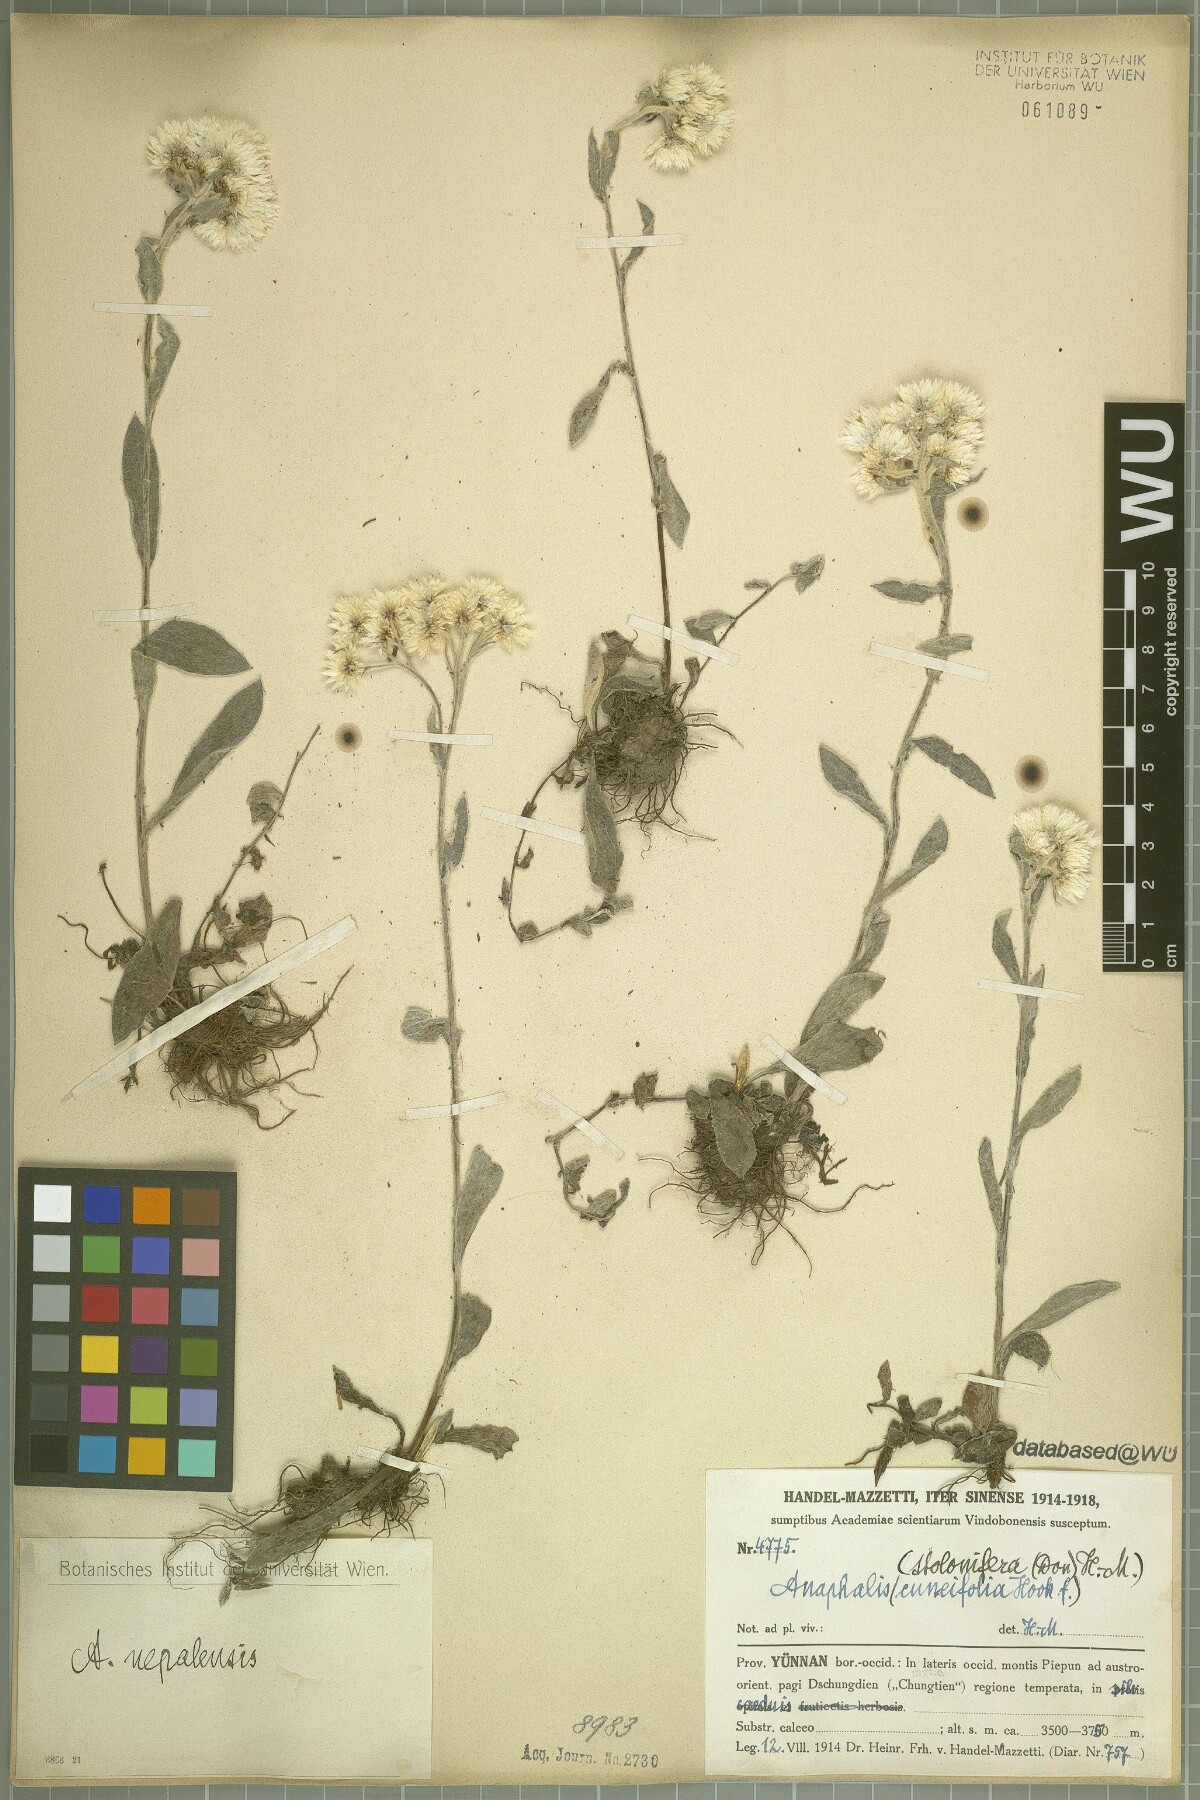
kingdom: Plantae
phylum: Tracheophyta
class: Magnoliopsida
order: Asterales
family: Asteraceae
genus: Anaphalis
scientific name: Anaphalis nepalensis
